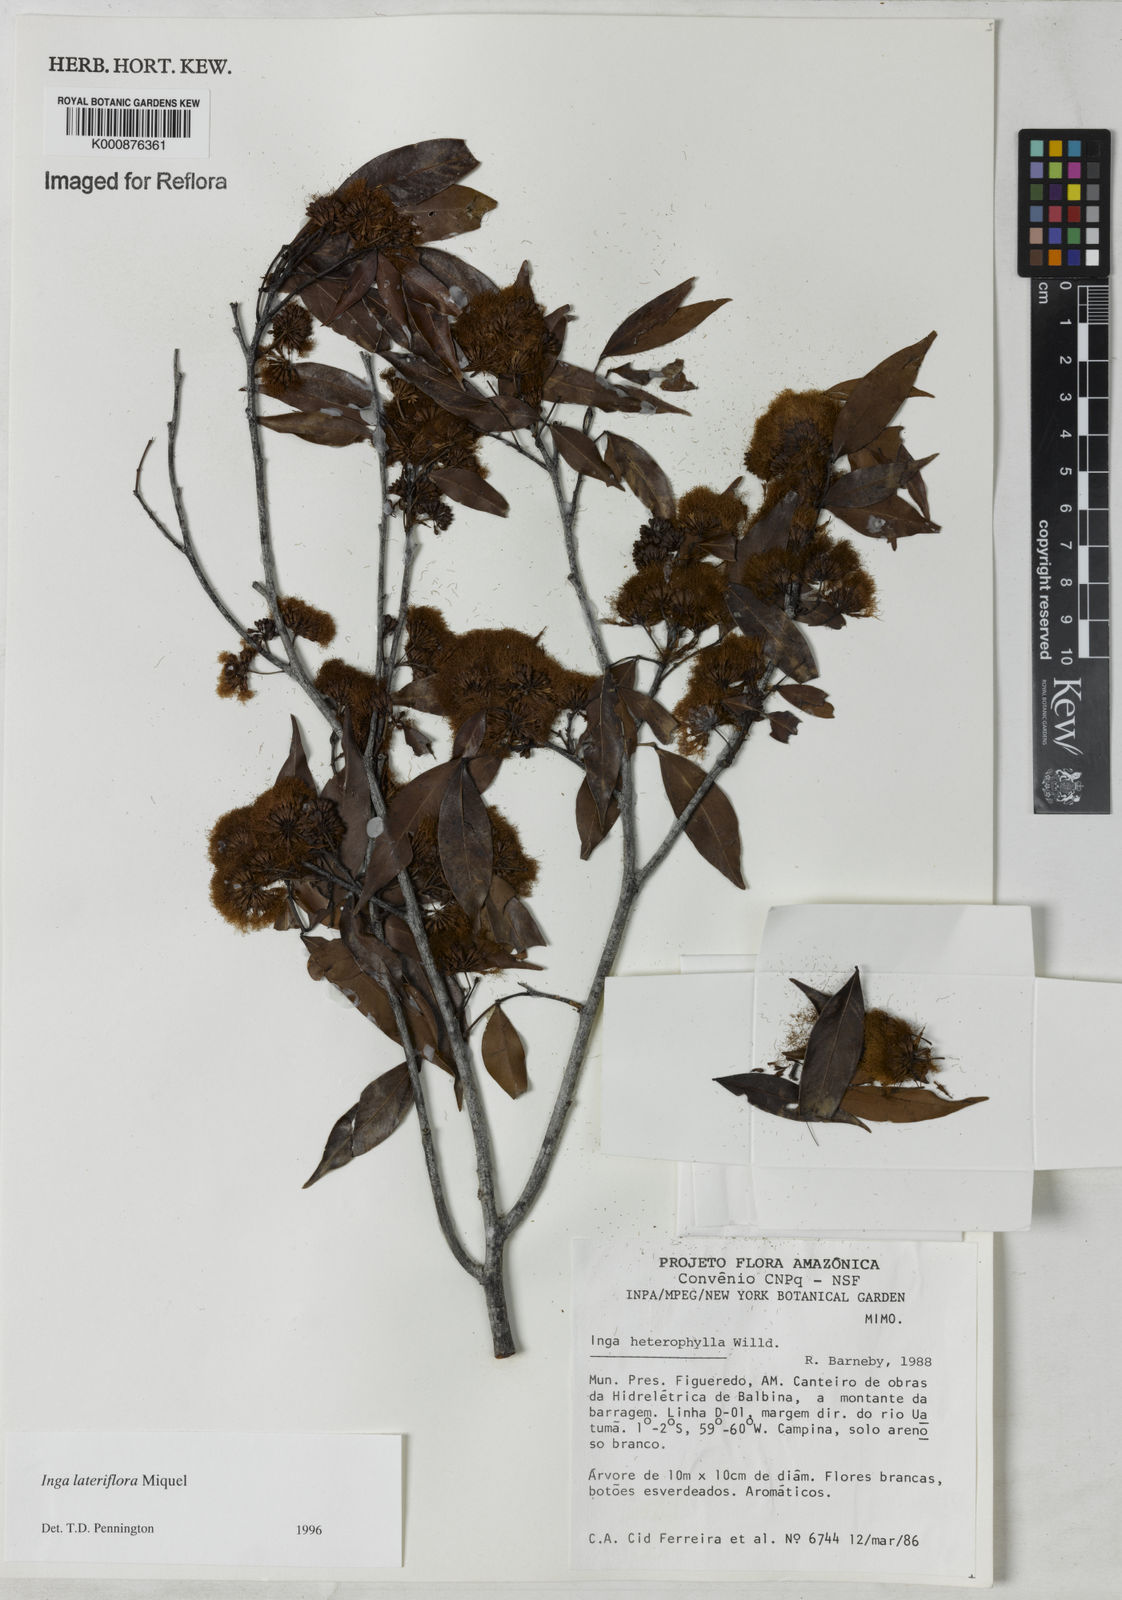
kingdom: Plantae
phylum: Tracheophyta
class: Magnoliopsida
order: Fabales
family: Fabaceae
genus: Inga
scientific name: Inga lateriflora
